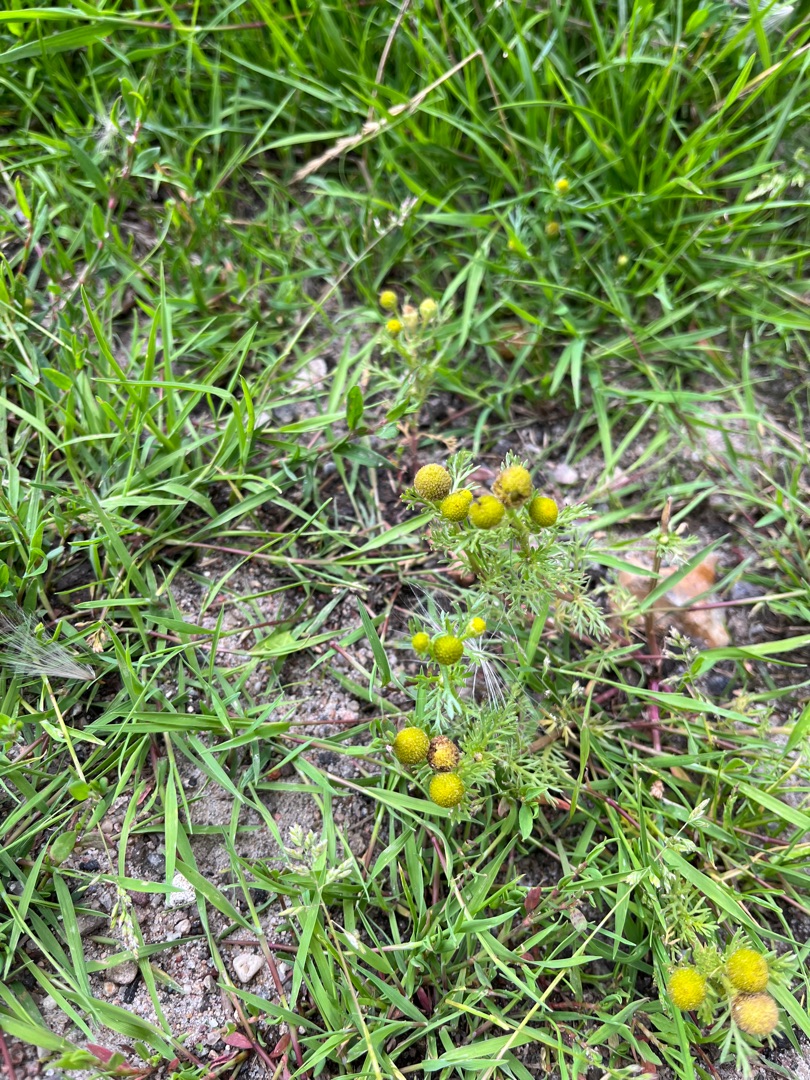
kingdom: Plantae
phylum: Tracheophyta
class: Magnoliopsida
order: Asterales
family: Asteraceae
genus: Matricaria
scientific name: Matricaria discoidea
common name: Skive-kamille
